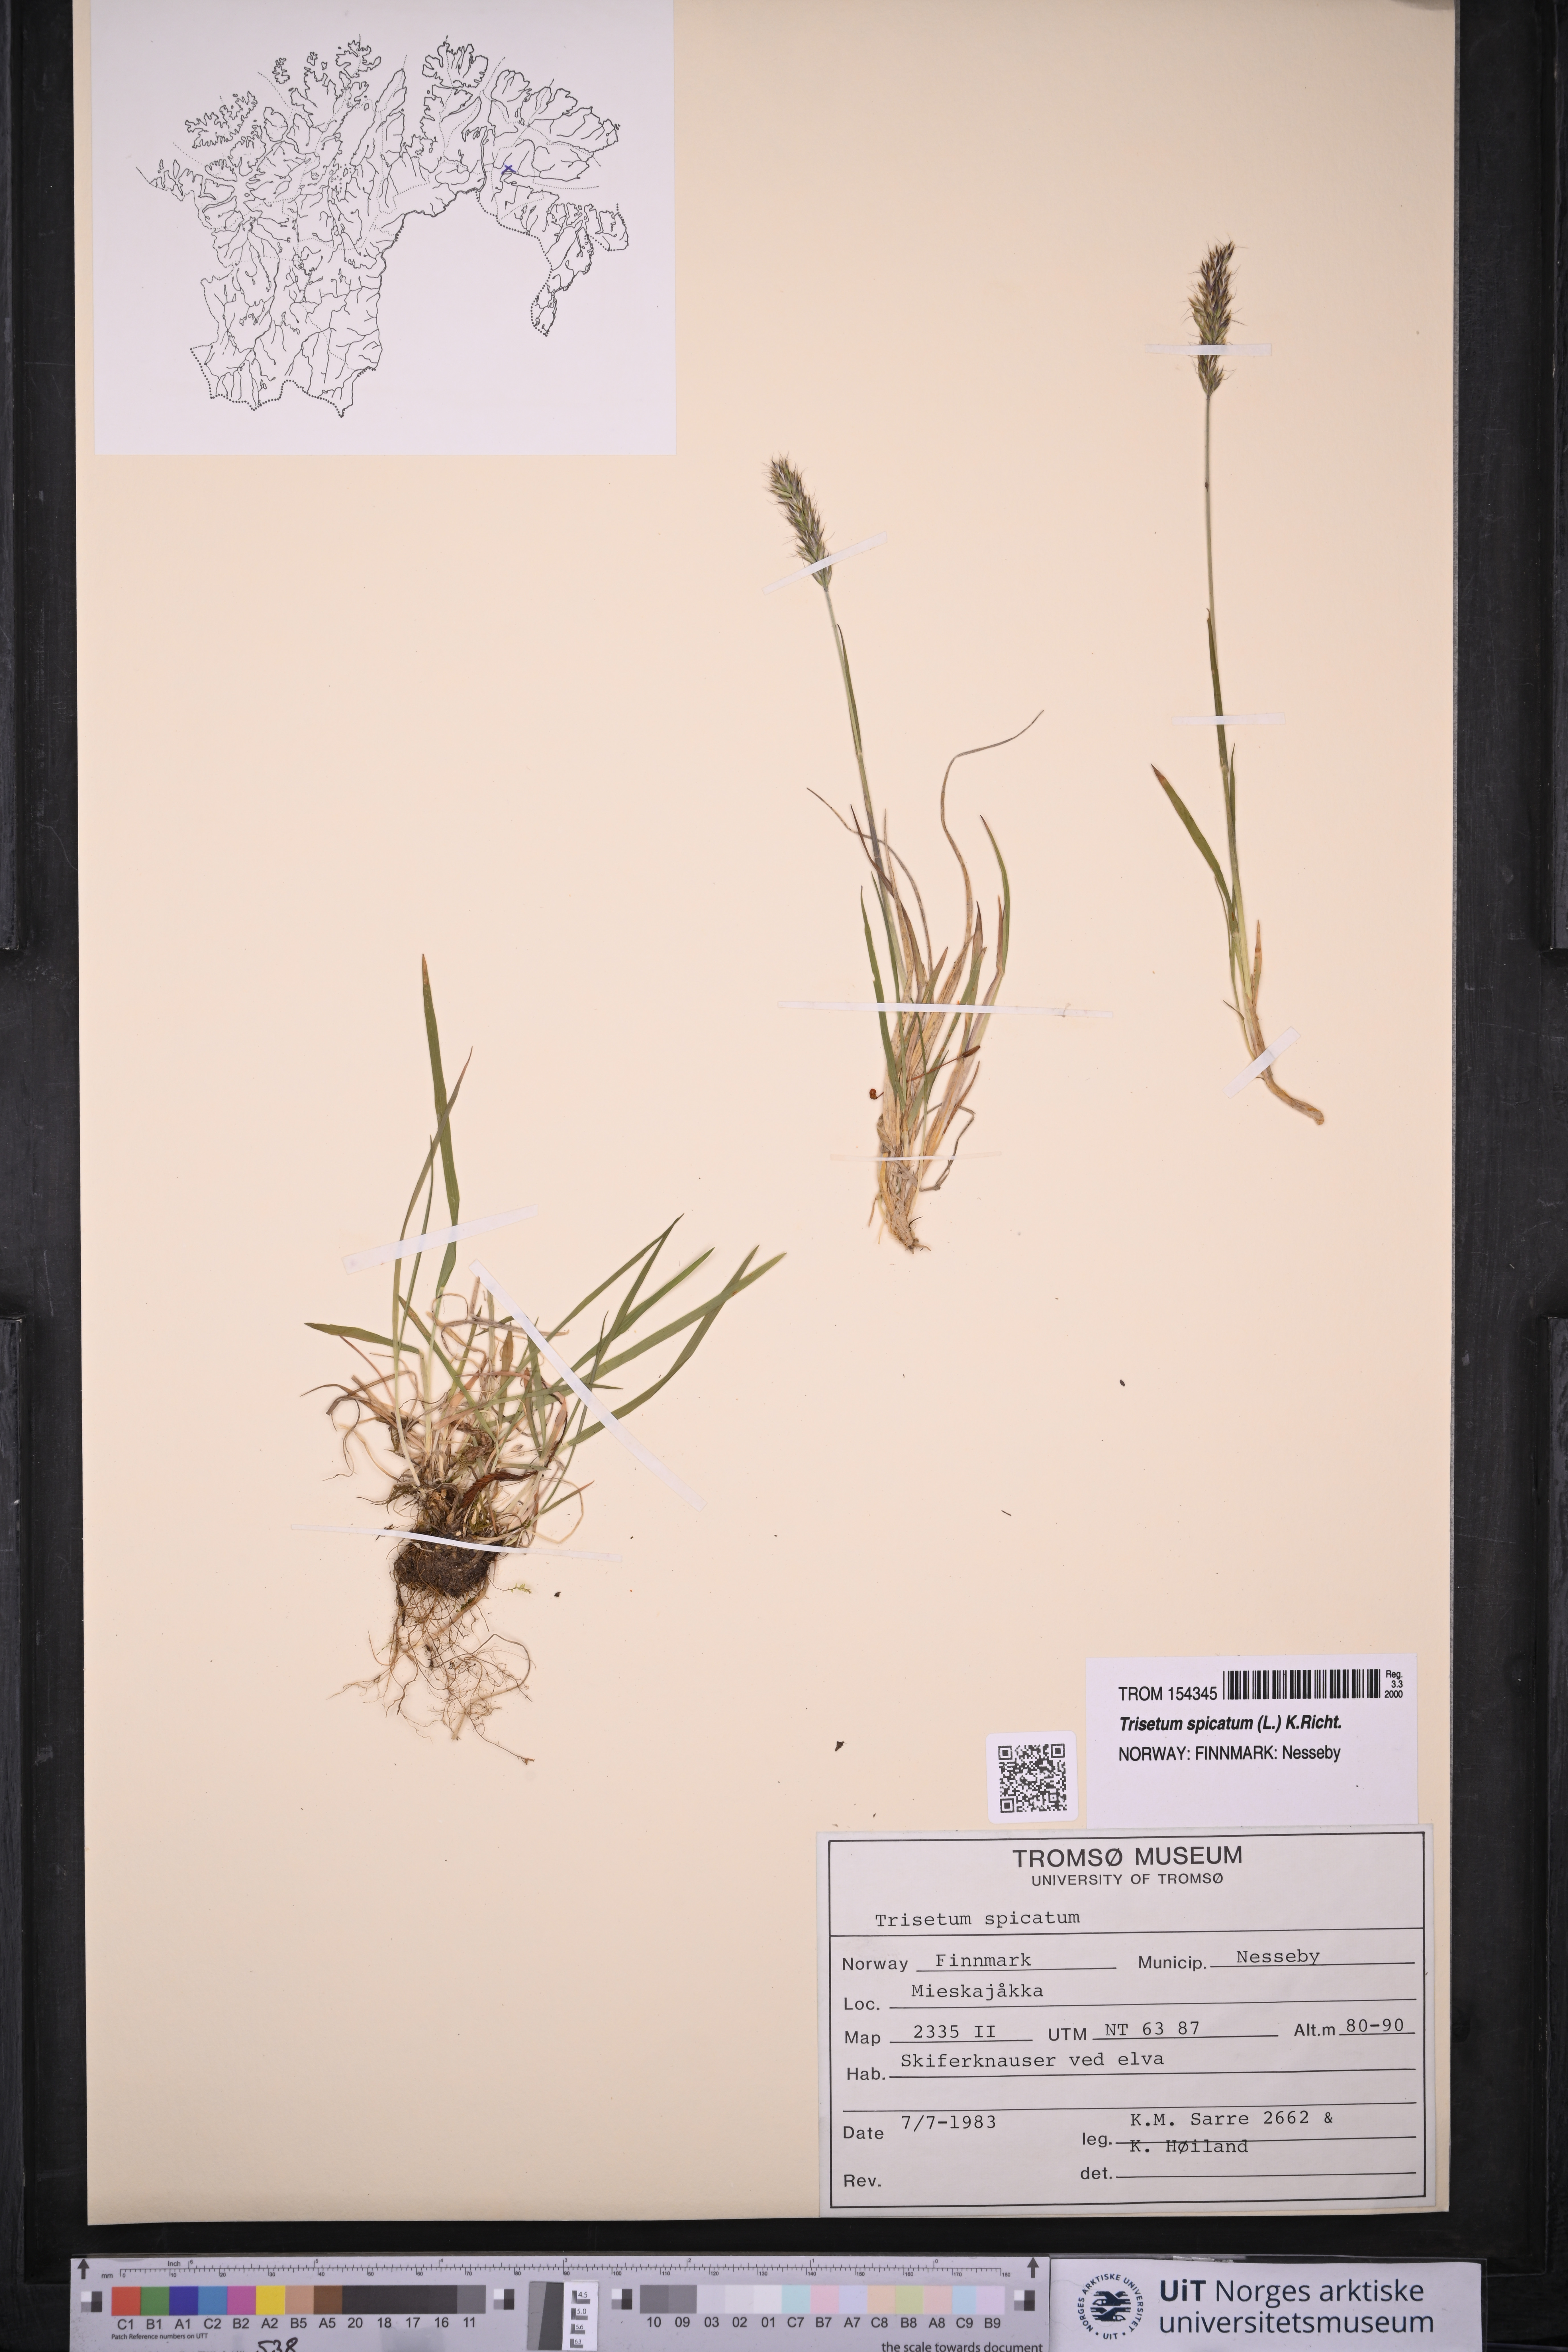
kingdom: Plantae
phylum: Tracheophyta
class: Liliopsida
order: Poales
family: Poaceae
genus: Koeleria
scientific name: Koeleria spicata
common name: Mountain trisetum
